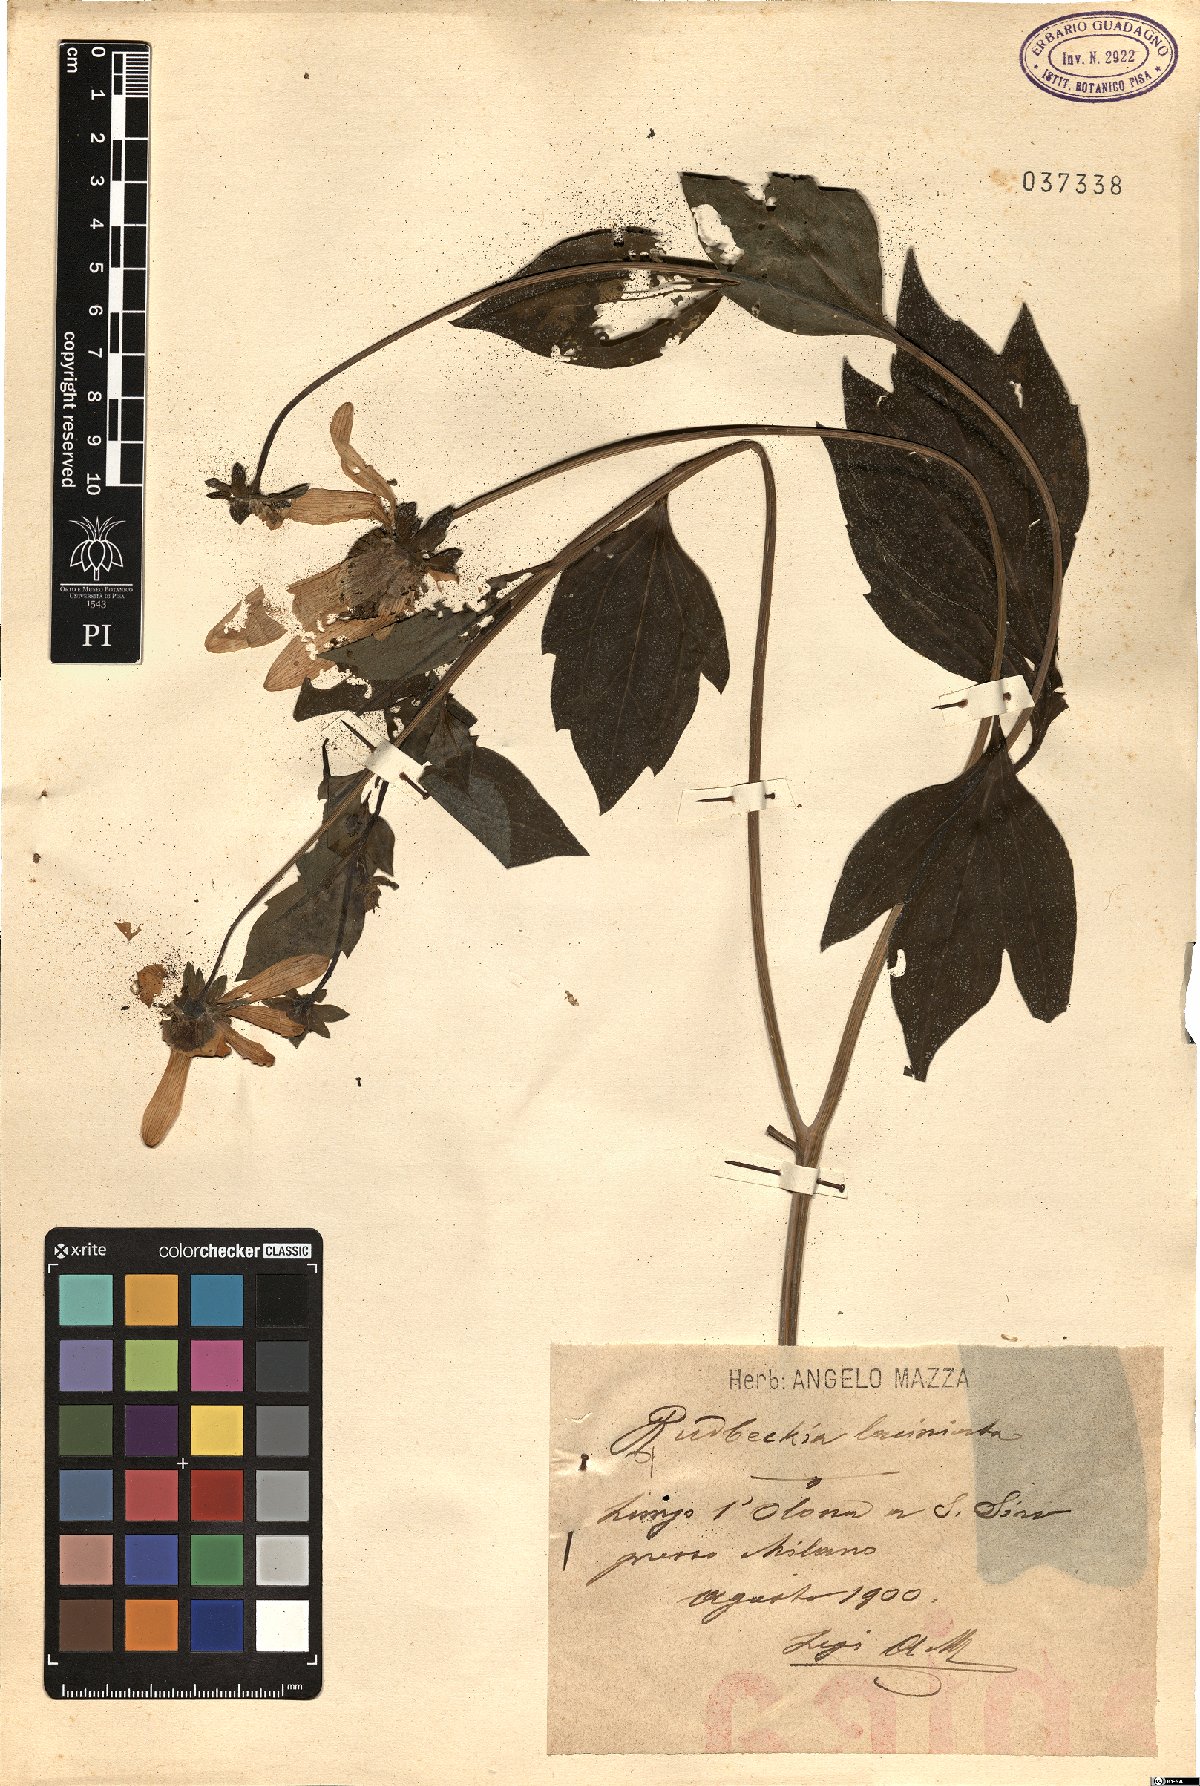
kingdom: Plantae
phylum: Tracheophyta
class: Magnoliopsida
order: Asterales
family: Asteraceae
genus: Rudbeckia
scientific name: Rudbeckia laciniata
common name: Coneflower
